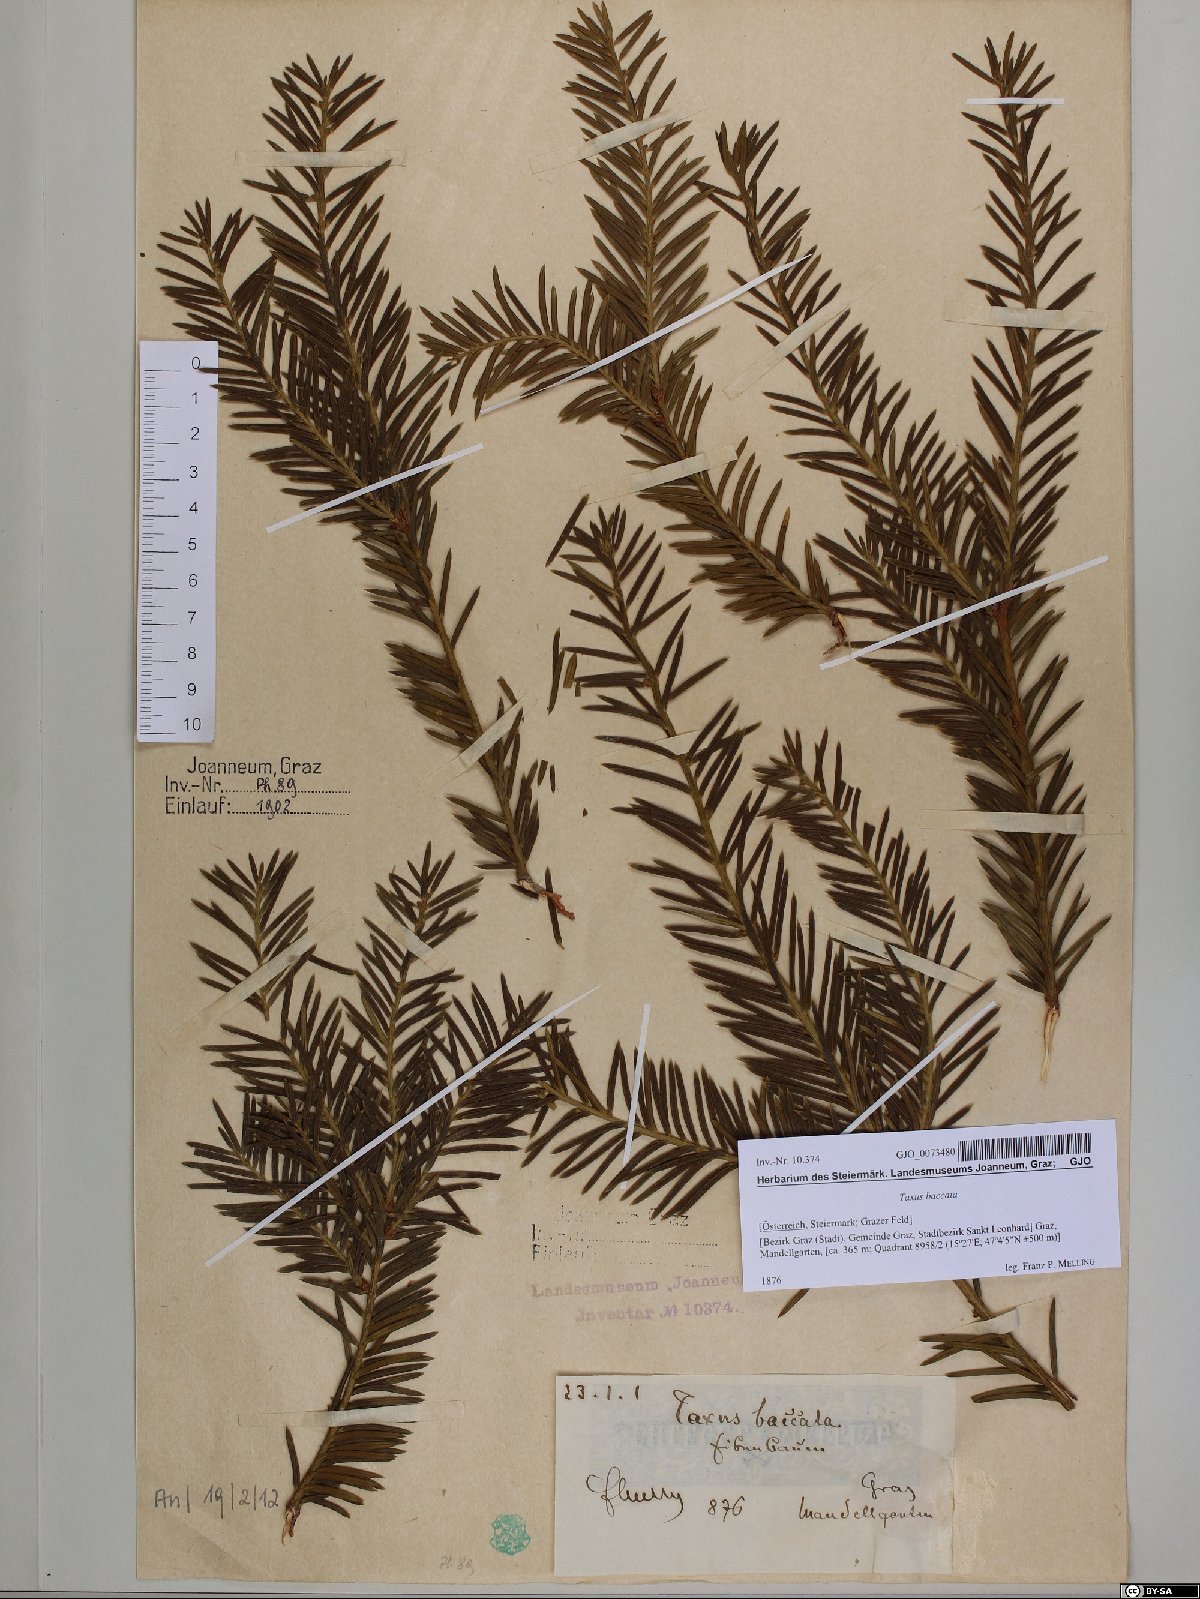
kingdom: Plantae
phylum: Tracheophyta
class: Pinopsida
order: Pinales
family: Taxaceae
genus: Taxus
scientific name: Taxus baccata
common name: Yew
